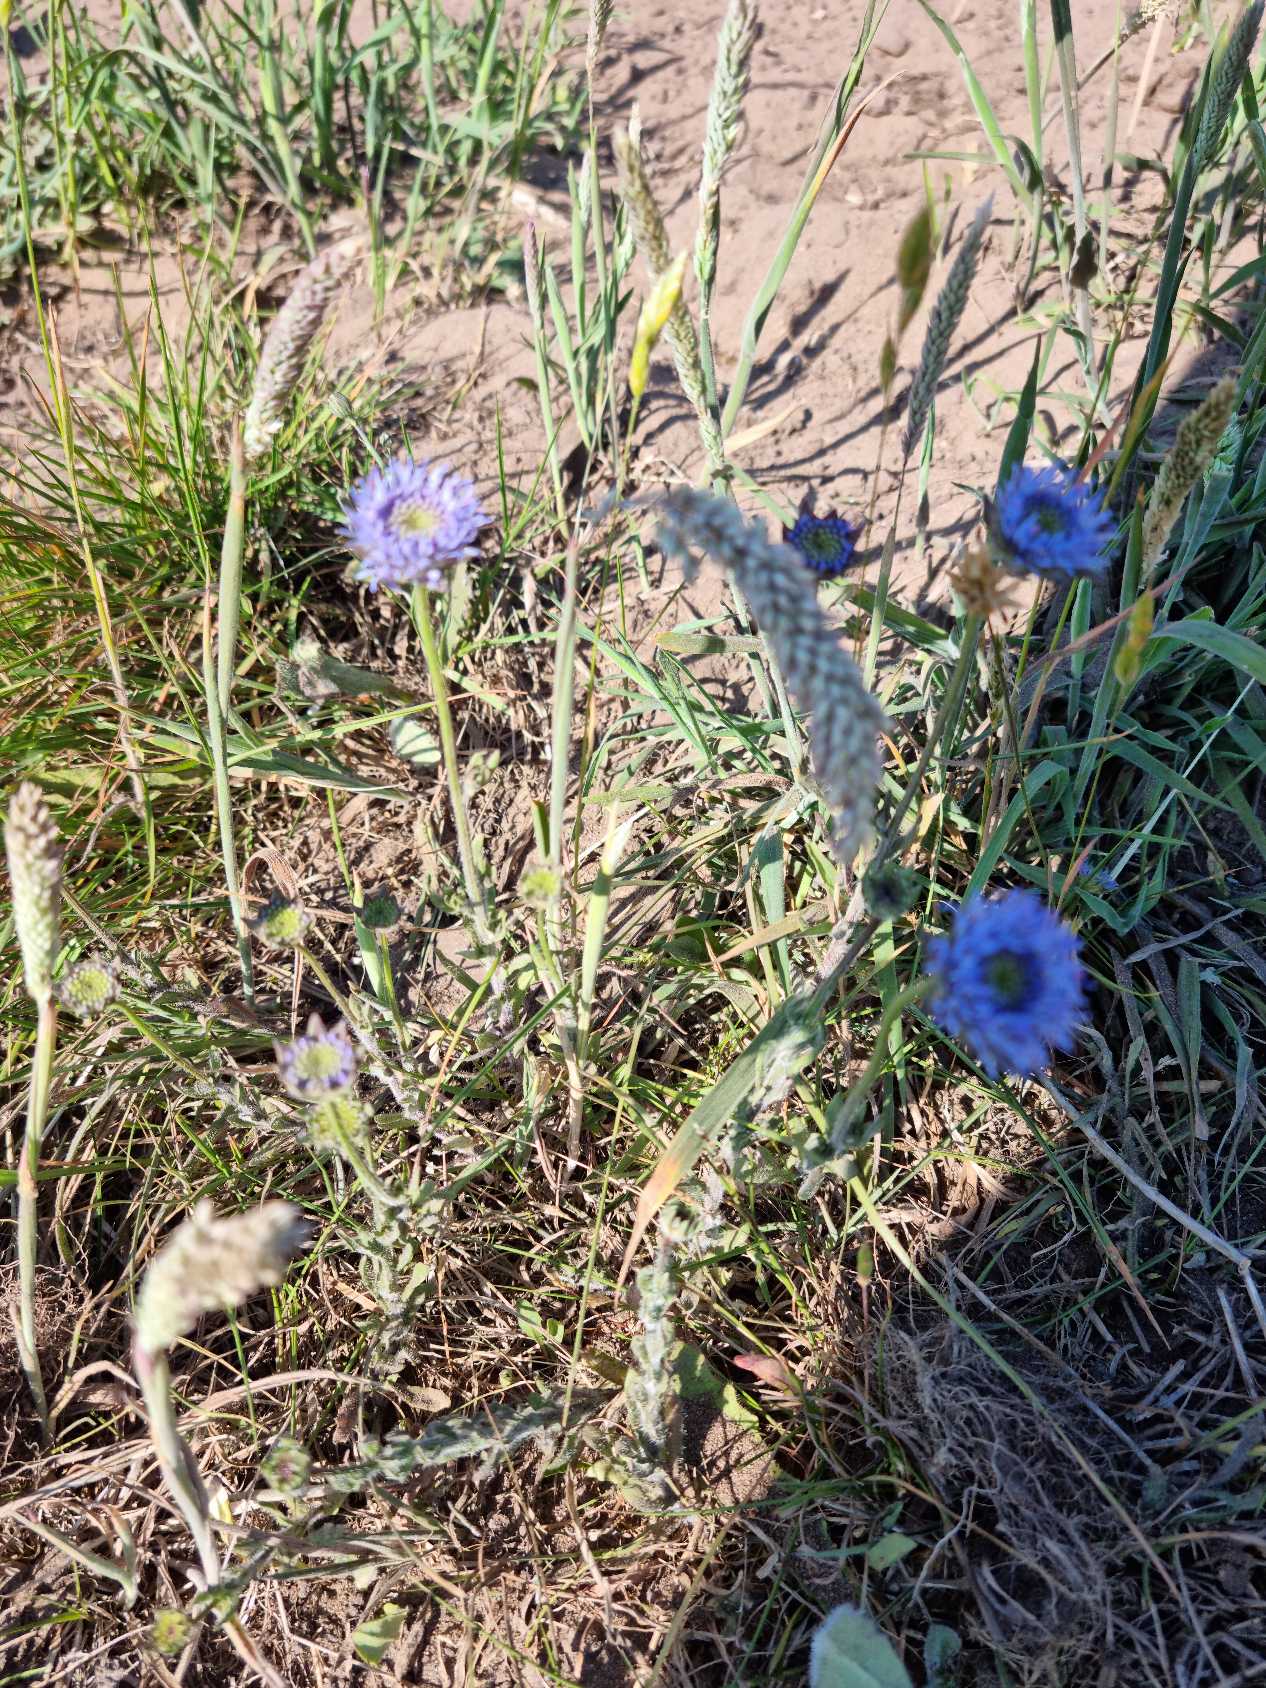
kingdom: Plantae
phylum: Tracheophyta
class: Magnoliopsida
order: Asterales
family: Campanulaceae
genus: Jasione
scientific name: Jasione montana
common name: Blåmunke
